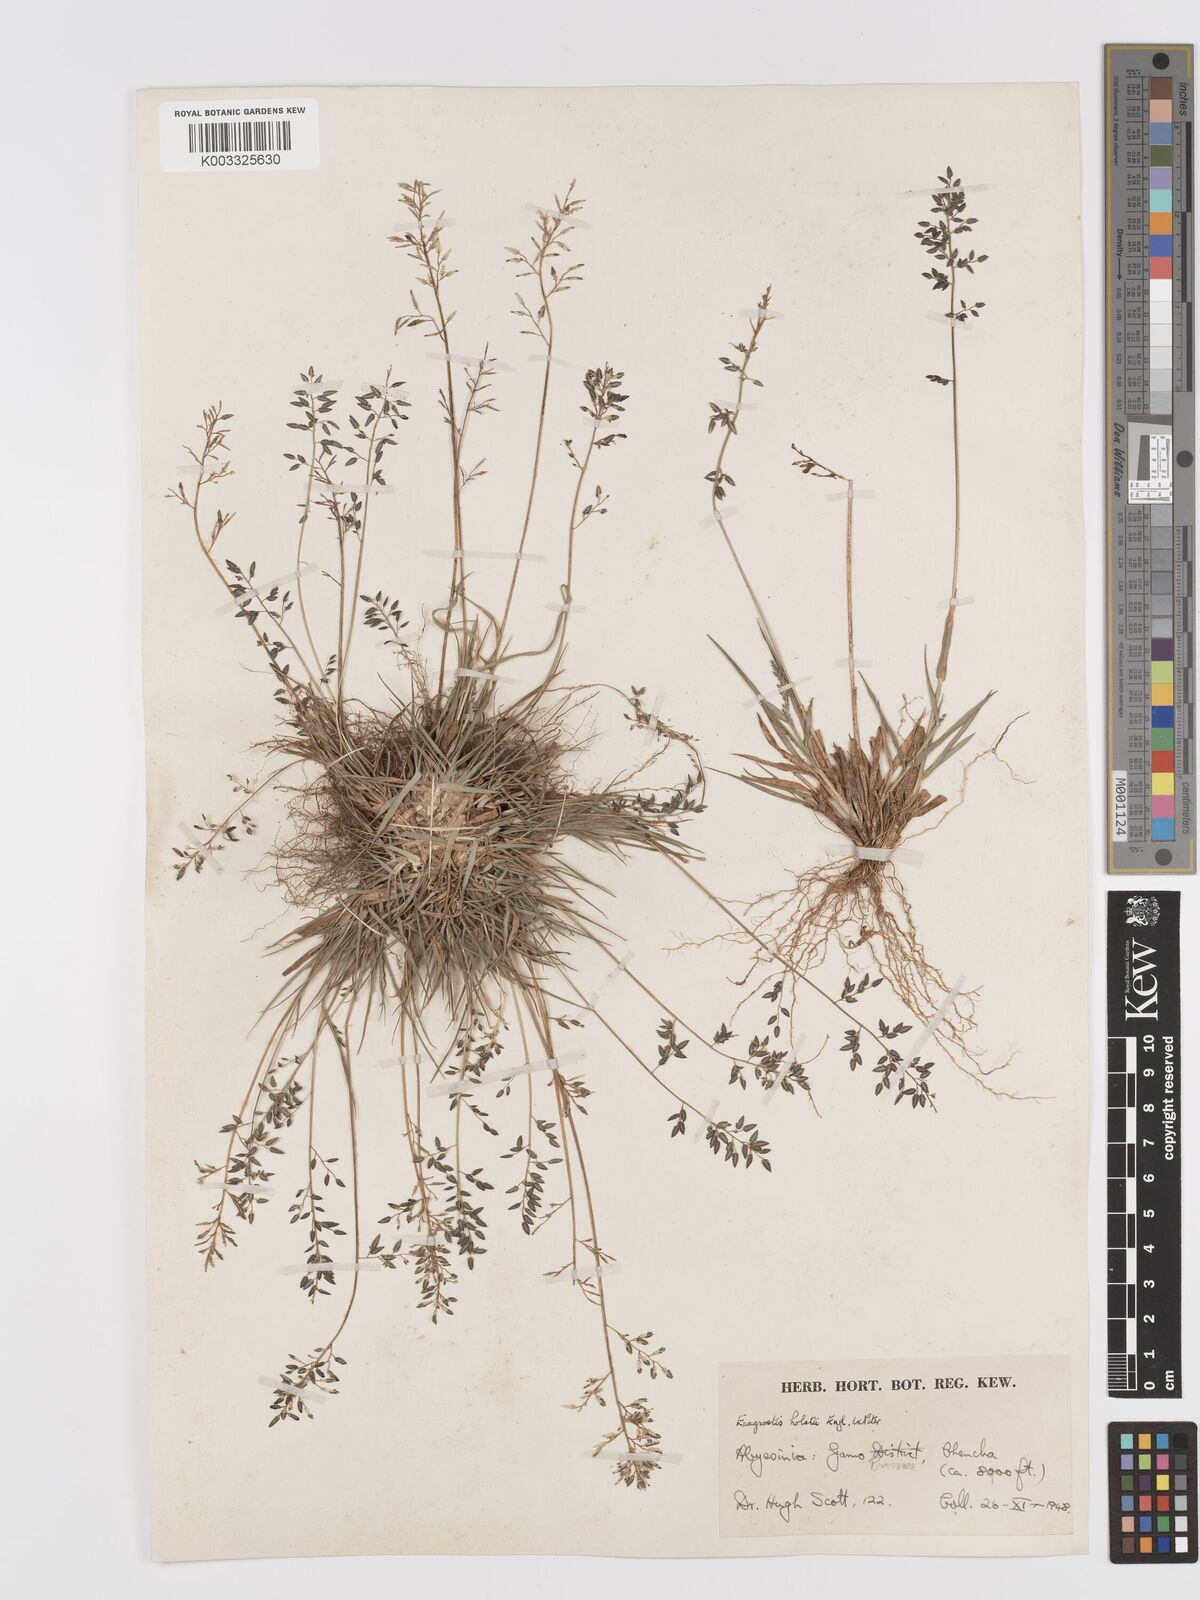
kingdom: Plantae
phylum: Tracheophyta
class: Liliopsida
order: Poales
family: Poaceae
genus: Eragrostis
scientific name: Eragrostis schweinfurthii
